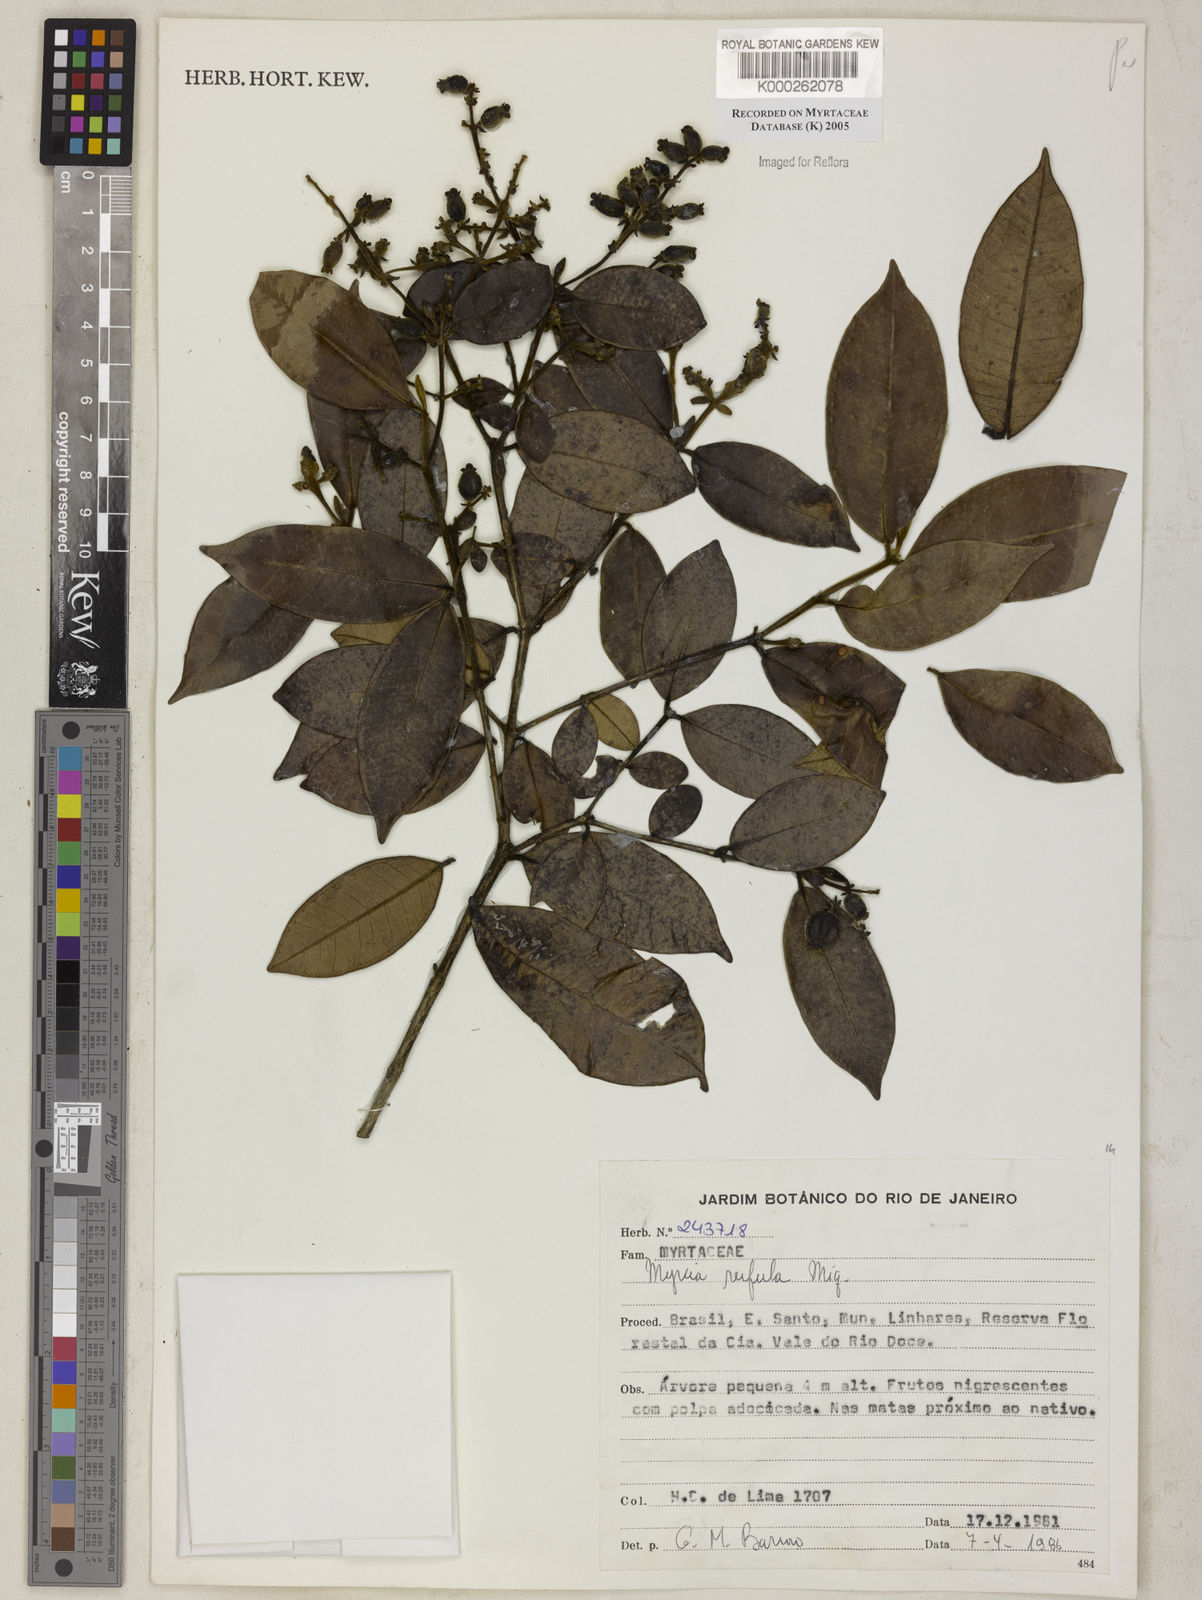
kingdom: Plantae
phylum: Tracheophyta
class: Magnoliopsida
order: Myrtales
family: Myrtaceae
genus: Myrcia
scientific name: Myrcia splendens
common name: Surinam cherry
